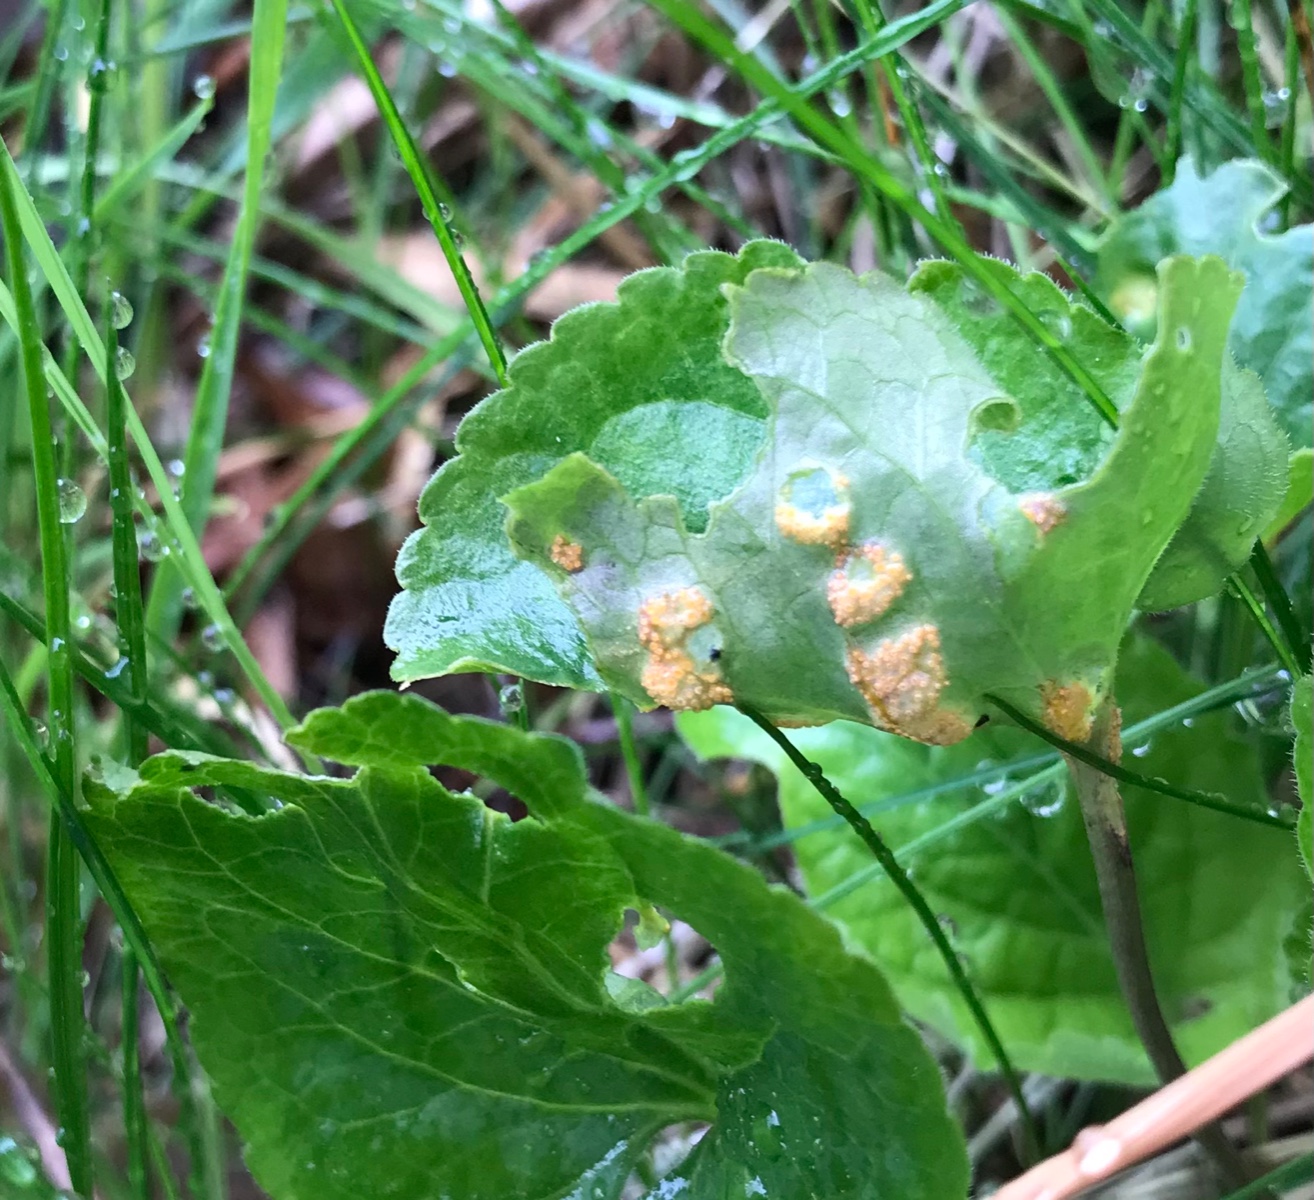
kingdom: Fungi
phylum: Basidiomycota
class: Pucciniomycetes
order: Pucciniales
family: Pucciniaceae
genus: Puccinia
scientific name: Puccinia violae
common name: viol-tvecellerust
